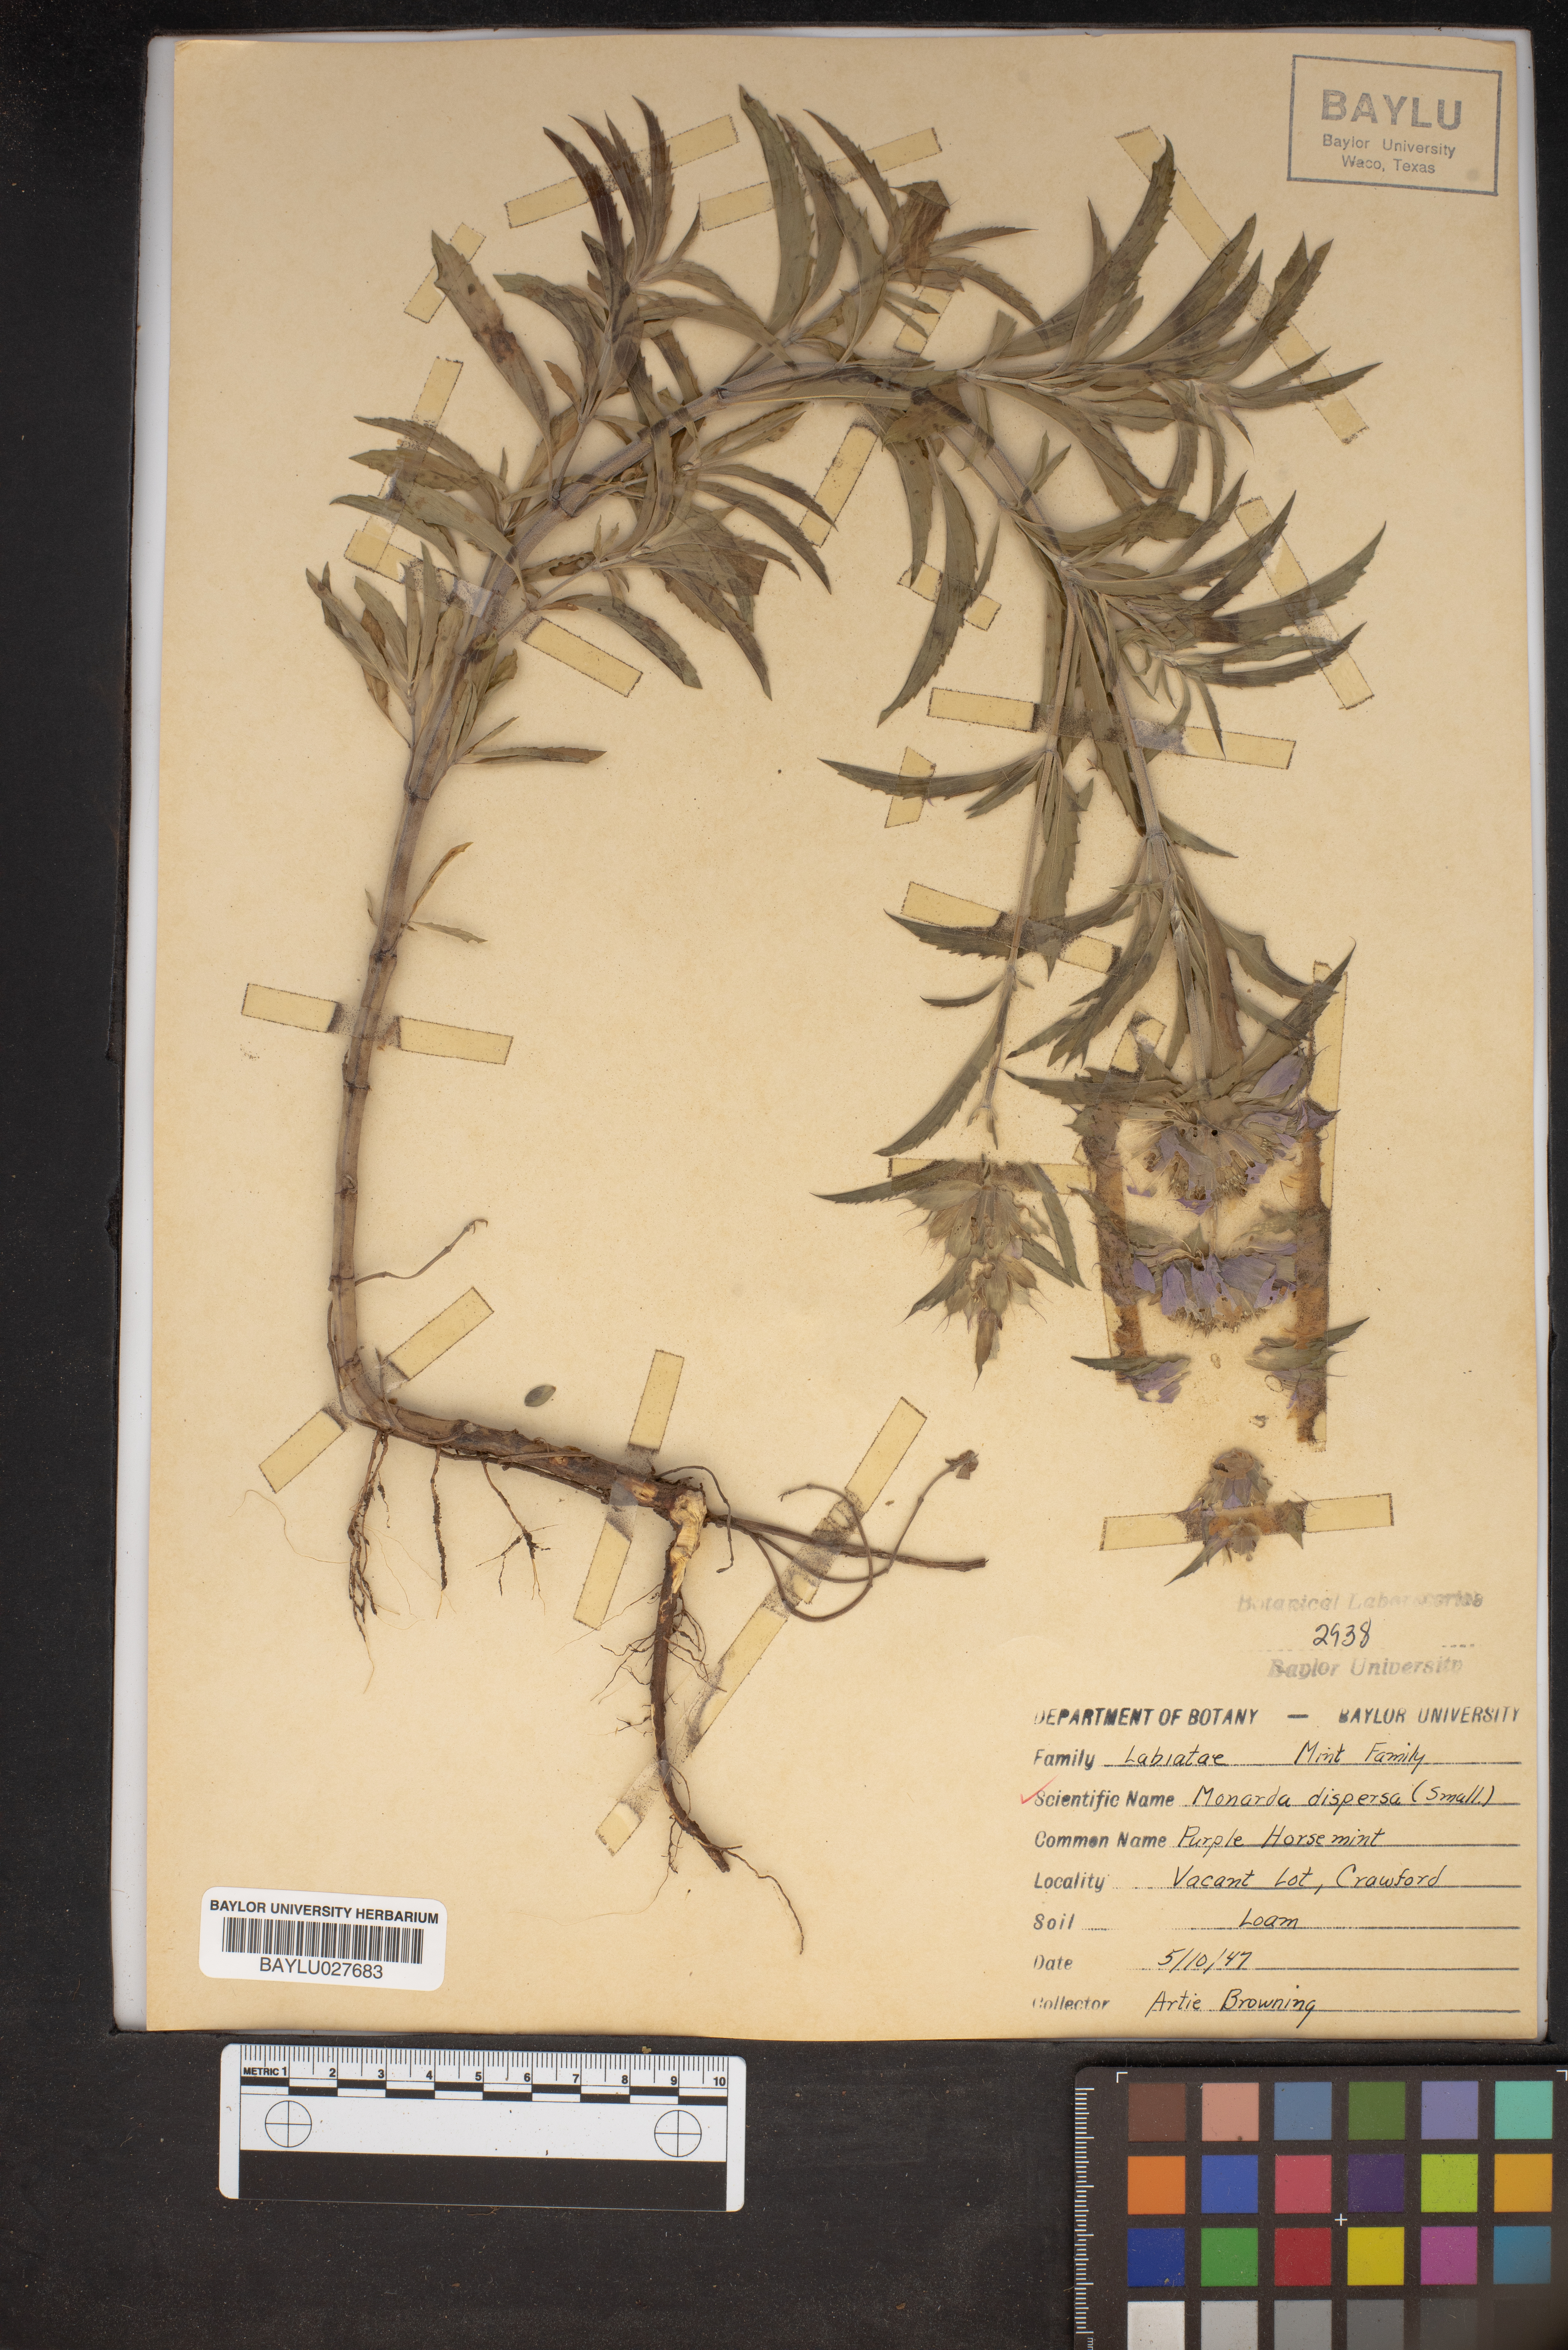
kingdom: Plantae
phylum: Tracheophyta
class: Magnoliopsida
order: Lamiales
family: Lamiaceae
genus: Monarda
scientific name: Monarda citriodora
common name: Lemon beebalm
